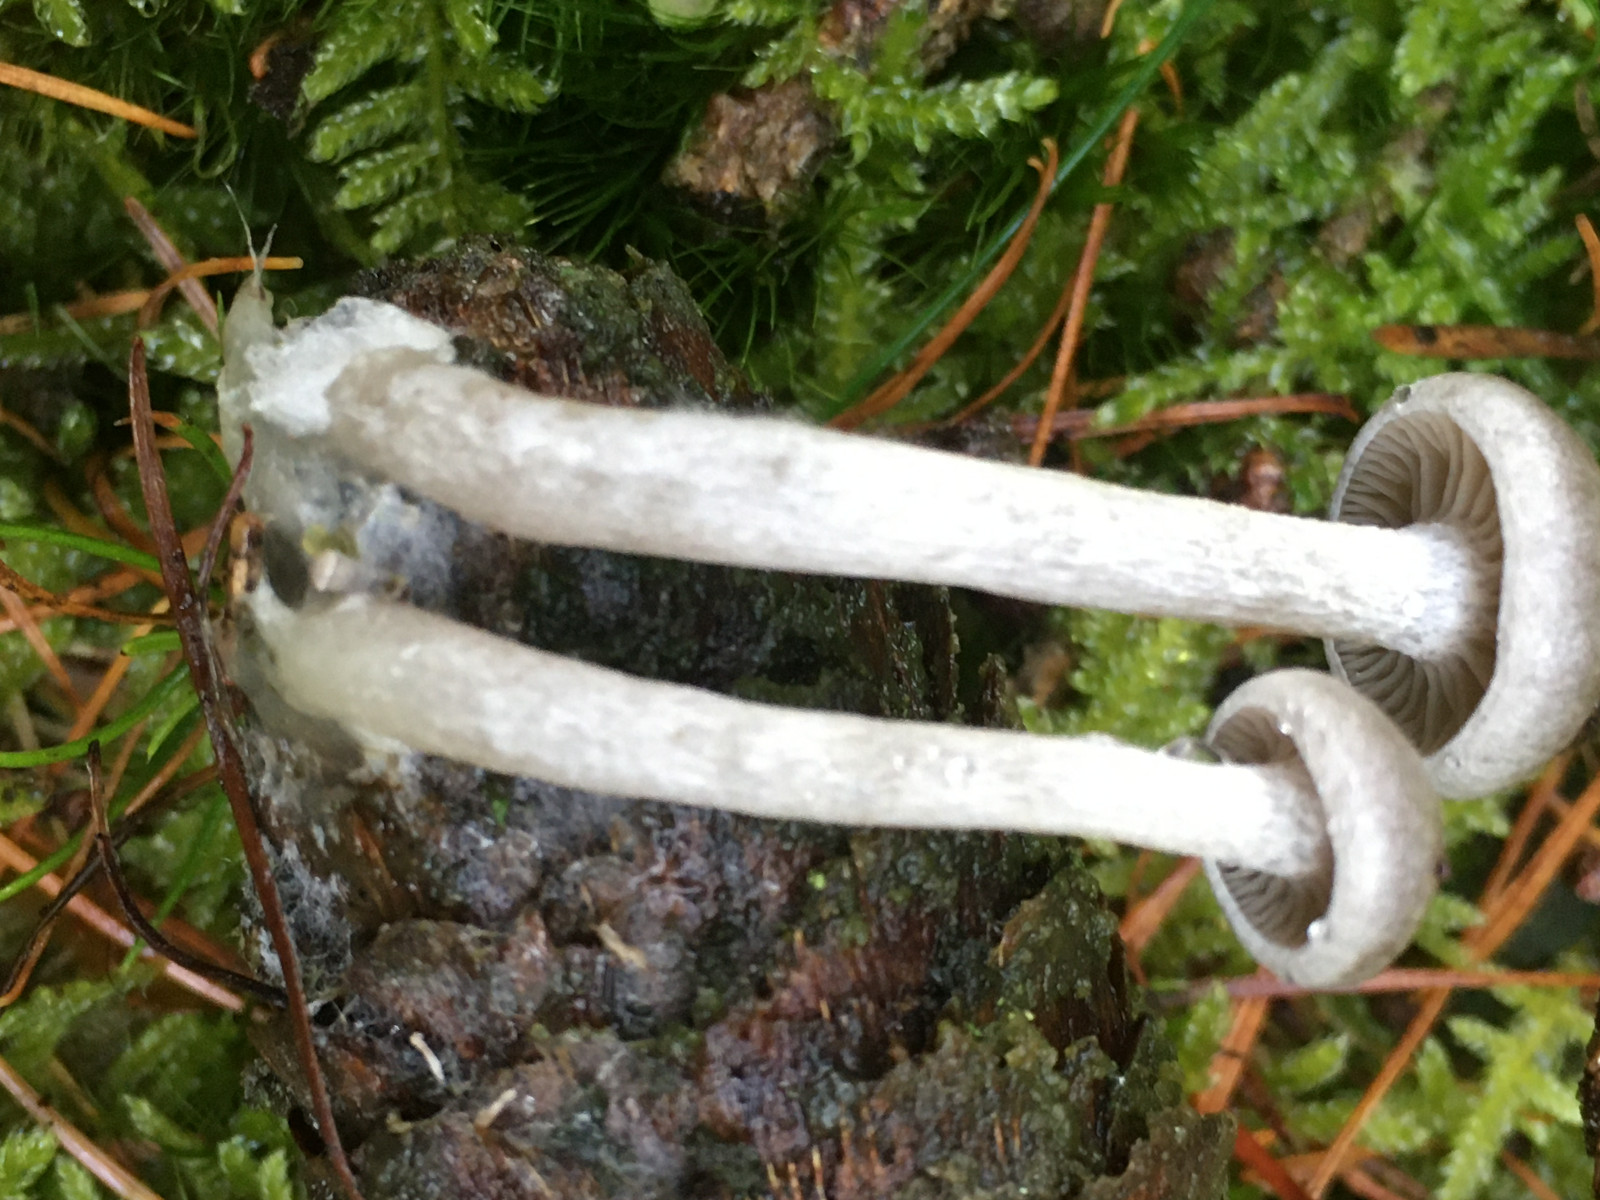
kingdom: Fungi
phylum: Basidiomycota
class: Agaricomycetes
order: Agaricales
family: Tricholomataceae
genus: Clitocybe
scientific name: Clitocybe
